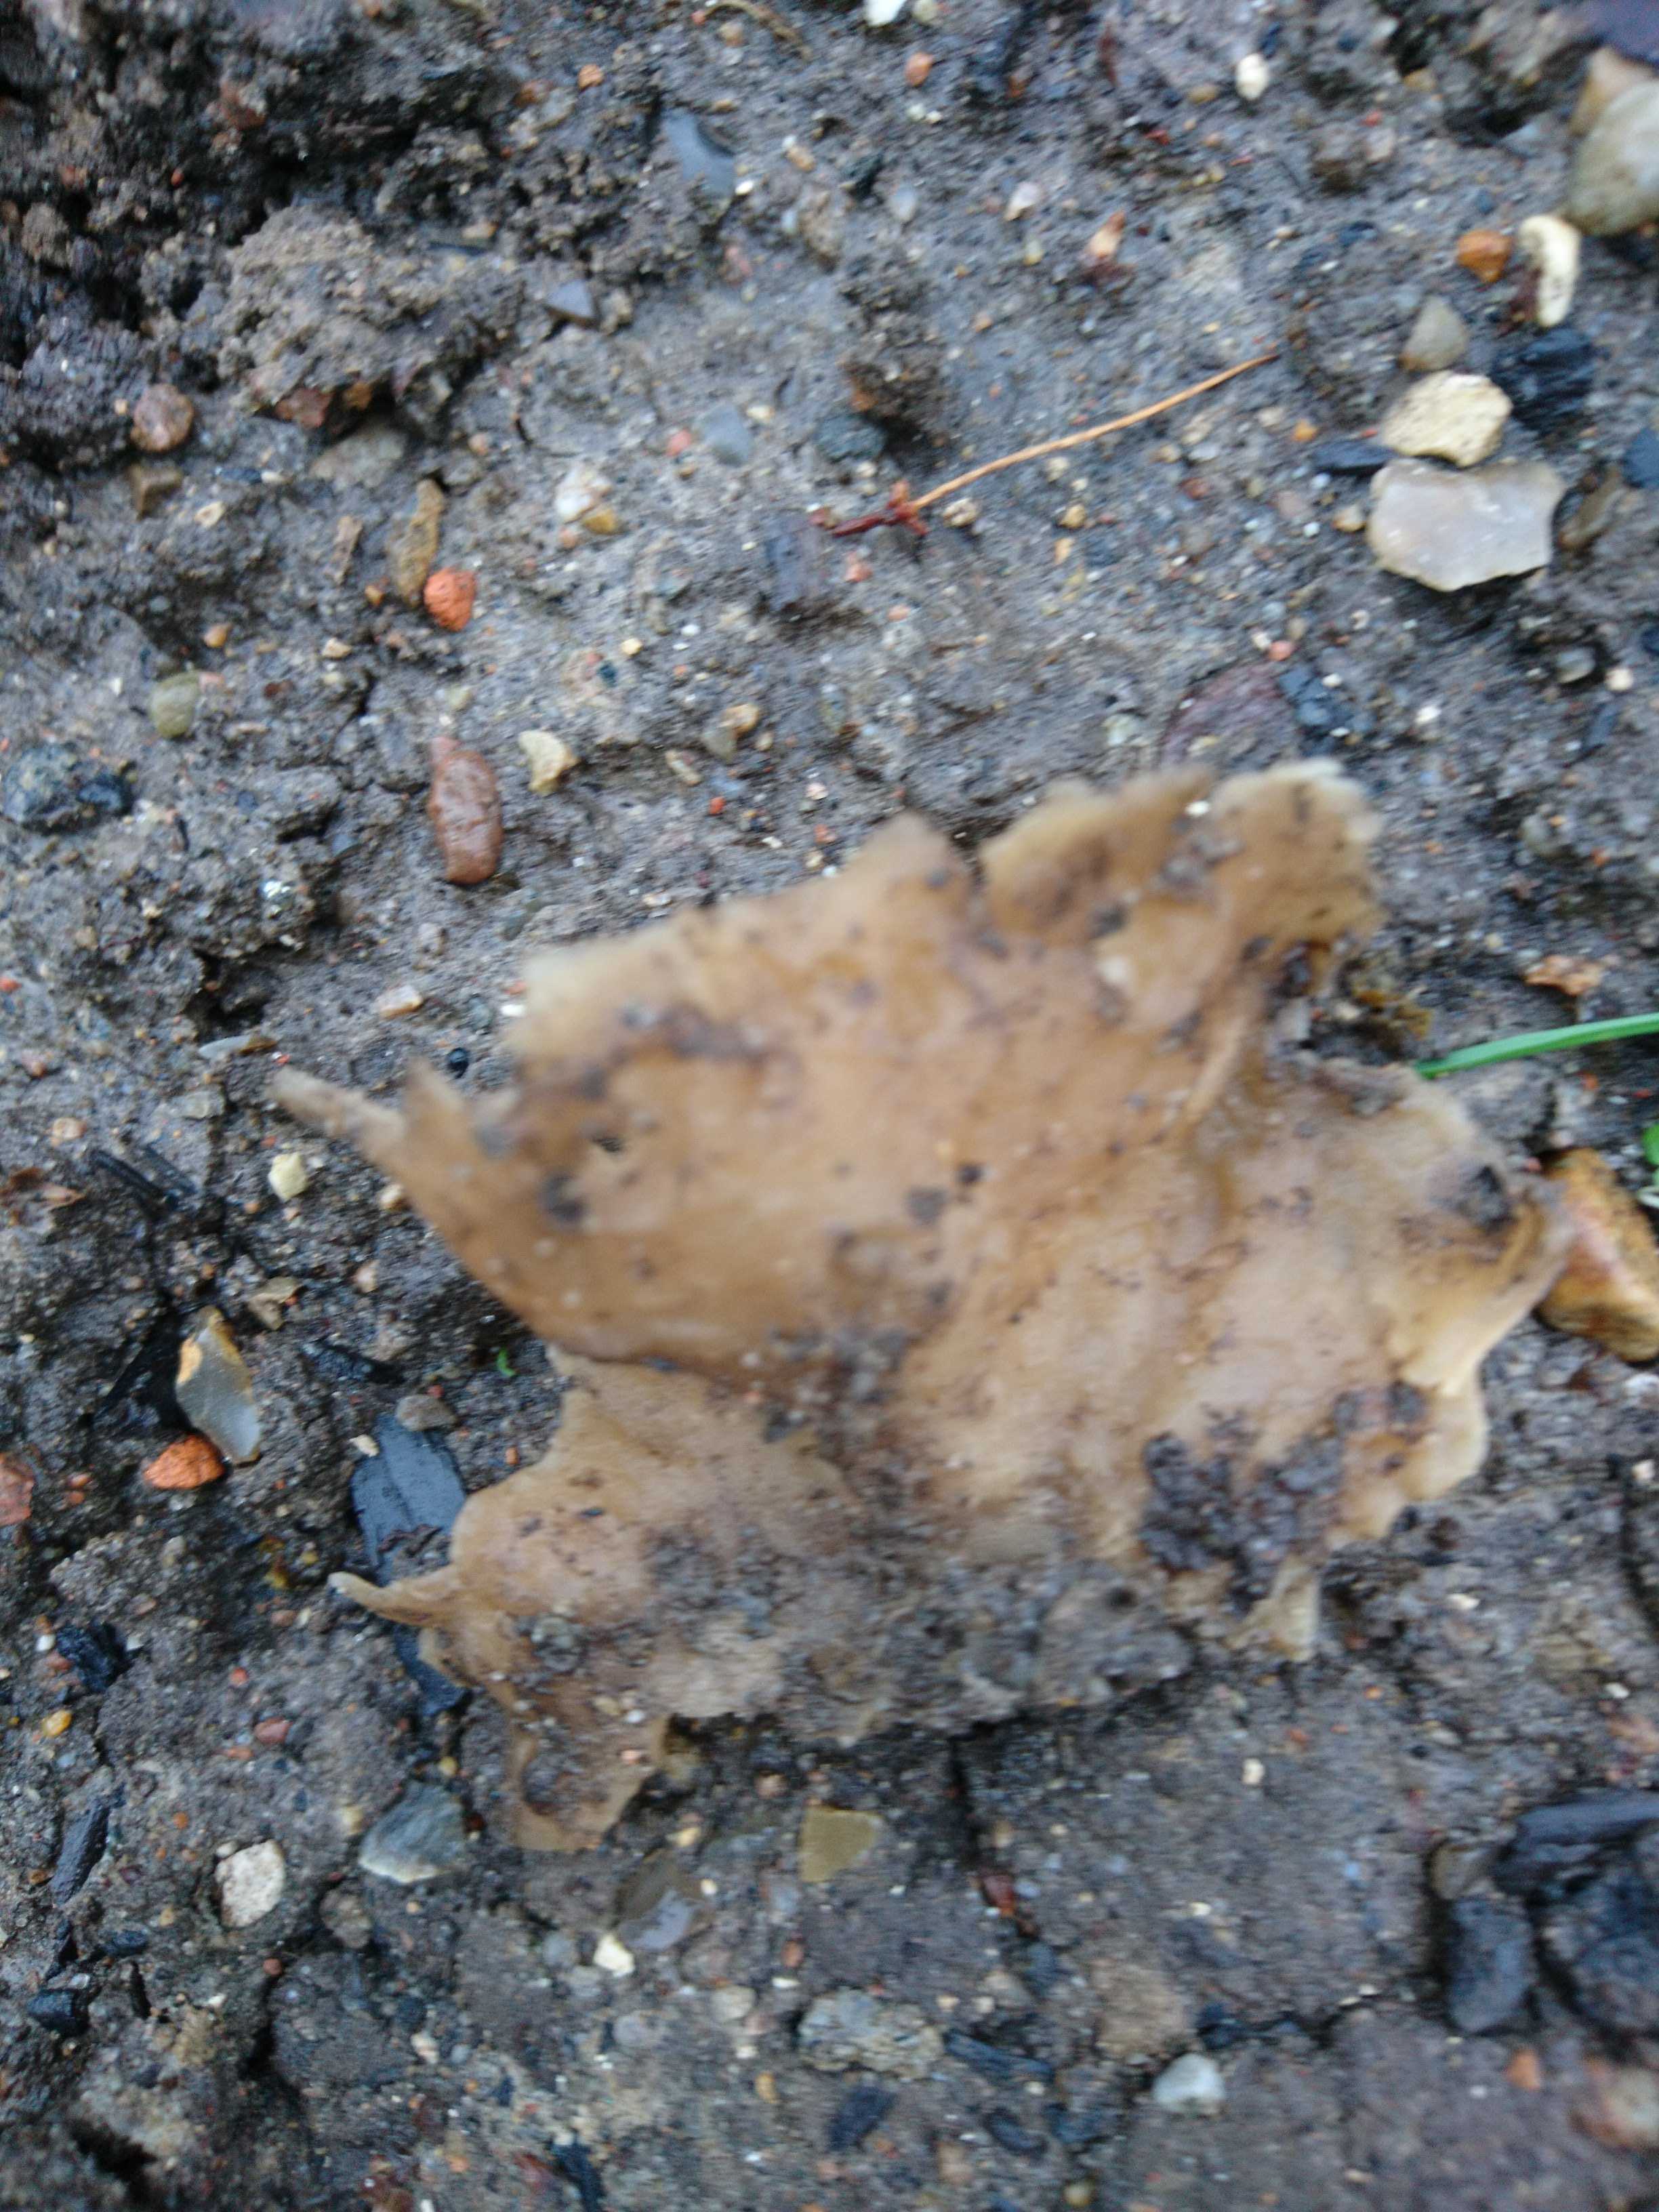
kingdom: Fungi
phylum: Ascomycota
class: Pezizomycetes
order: Pezizales
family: Pezizaceae
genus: Peziza
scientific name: Peziza vesiculosa
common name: blære-bægersvamp
